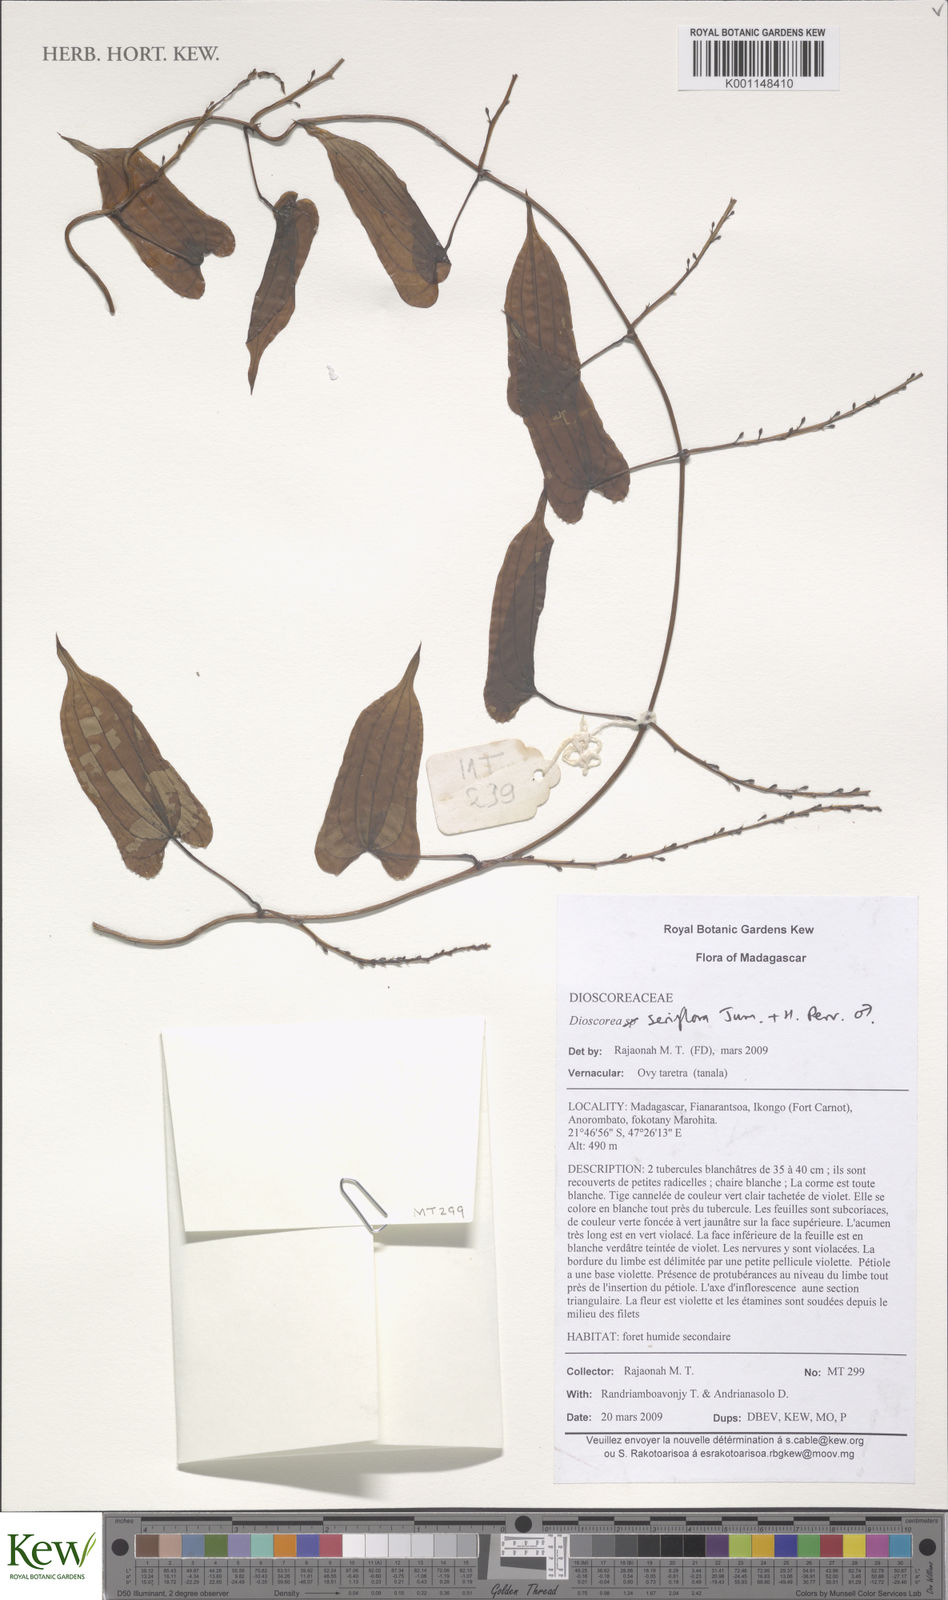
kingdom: Plantae
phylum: Tracheophyta
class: Liliopsida
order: Dioscoreales
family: Dioscoreaceae
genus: Dioscorea
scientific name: Dioscorea seriflora
